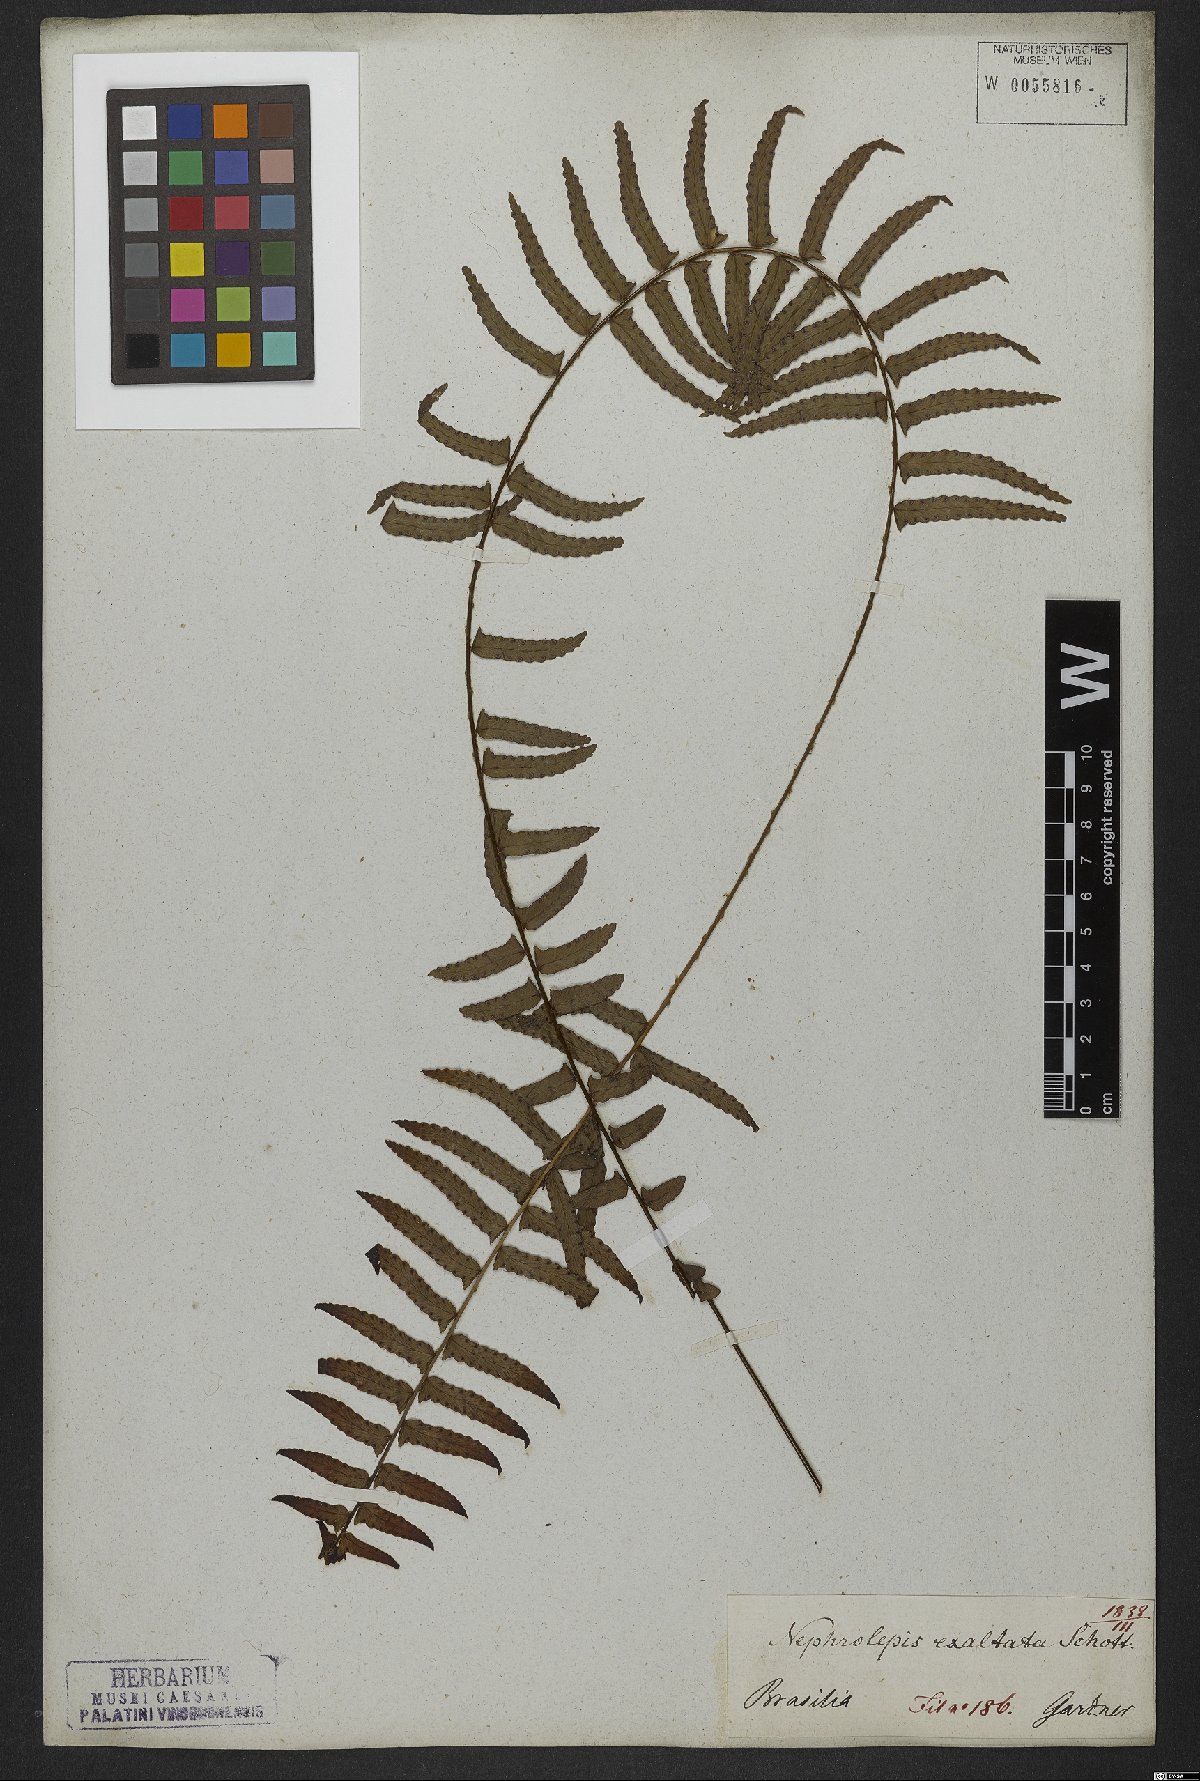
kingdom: Plantae
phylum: Tracheophyta
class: Polypodiopsida
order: Polypodiales
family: Nephrolepidaceae
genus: Nephrolepis
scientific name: Nephrolepis exaltata
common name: Sword fern
